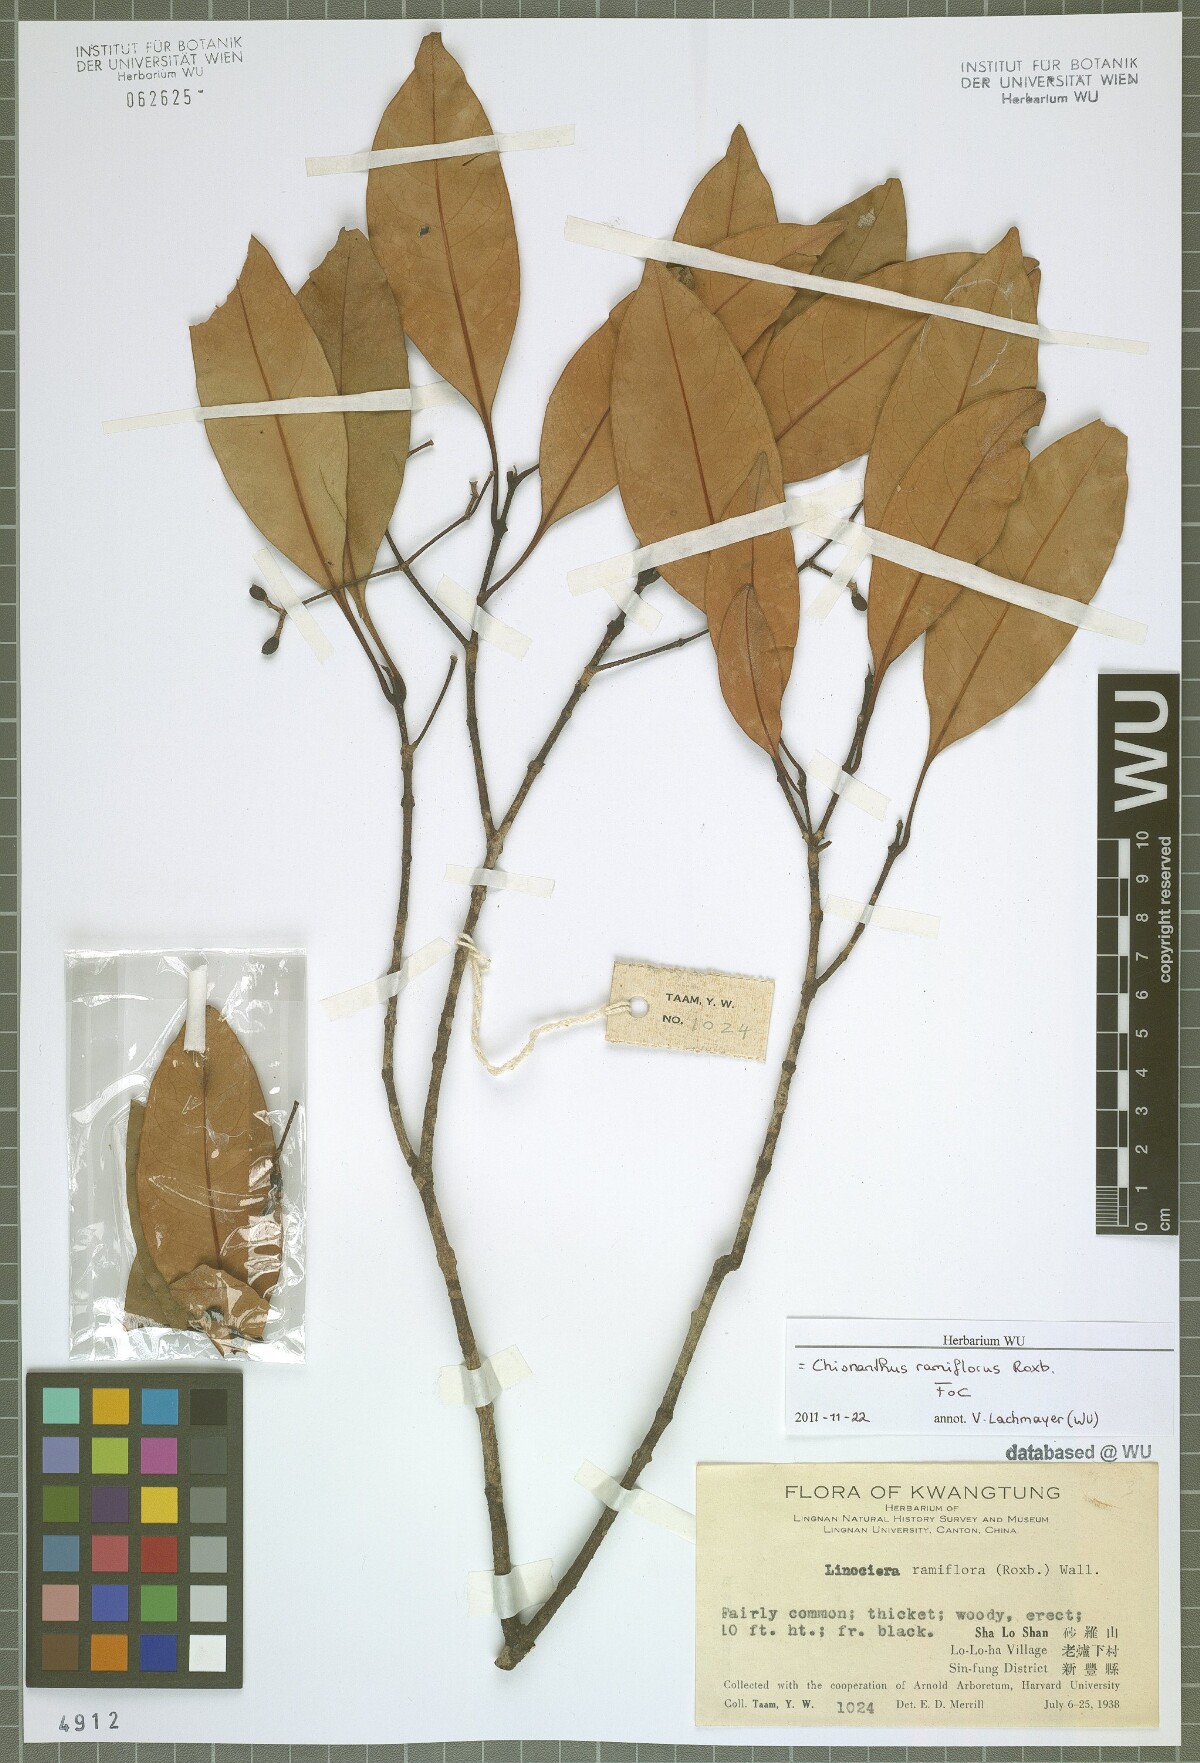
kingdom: Plantae
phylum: Tracheophyta
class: Magnoliopsida
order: Lamiales
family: Oleaceae
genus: Chionanthus
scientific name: Chionanthus ramiflorus
